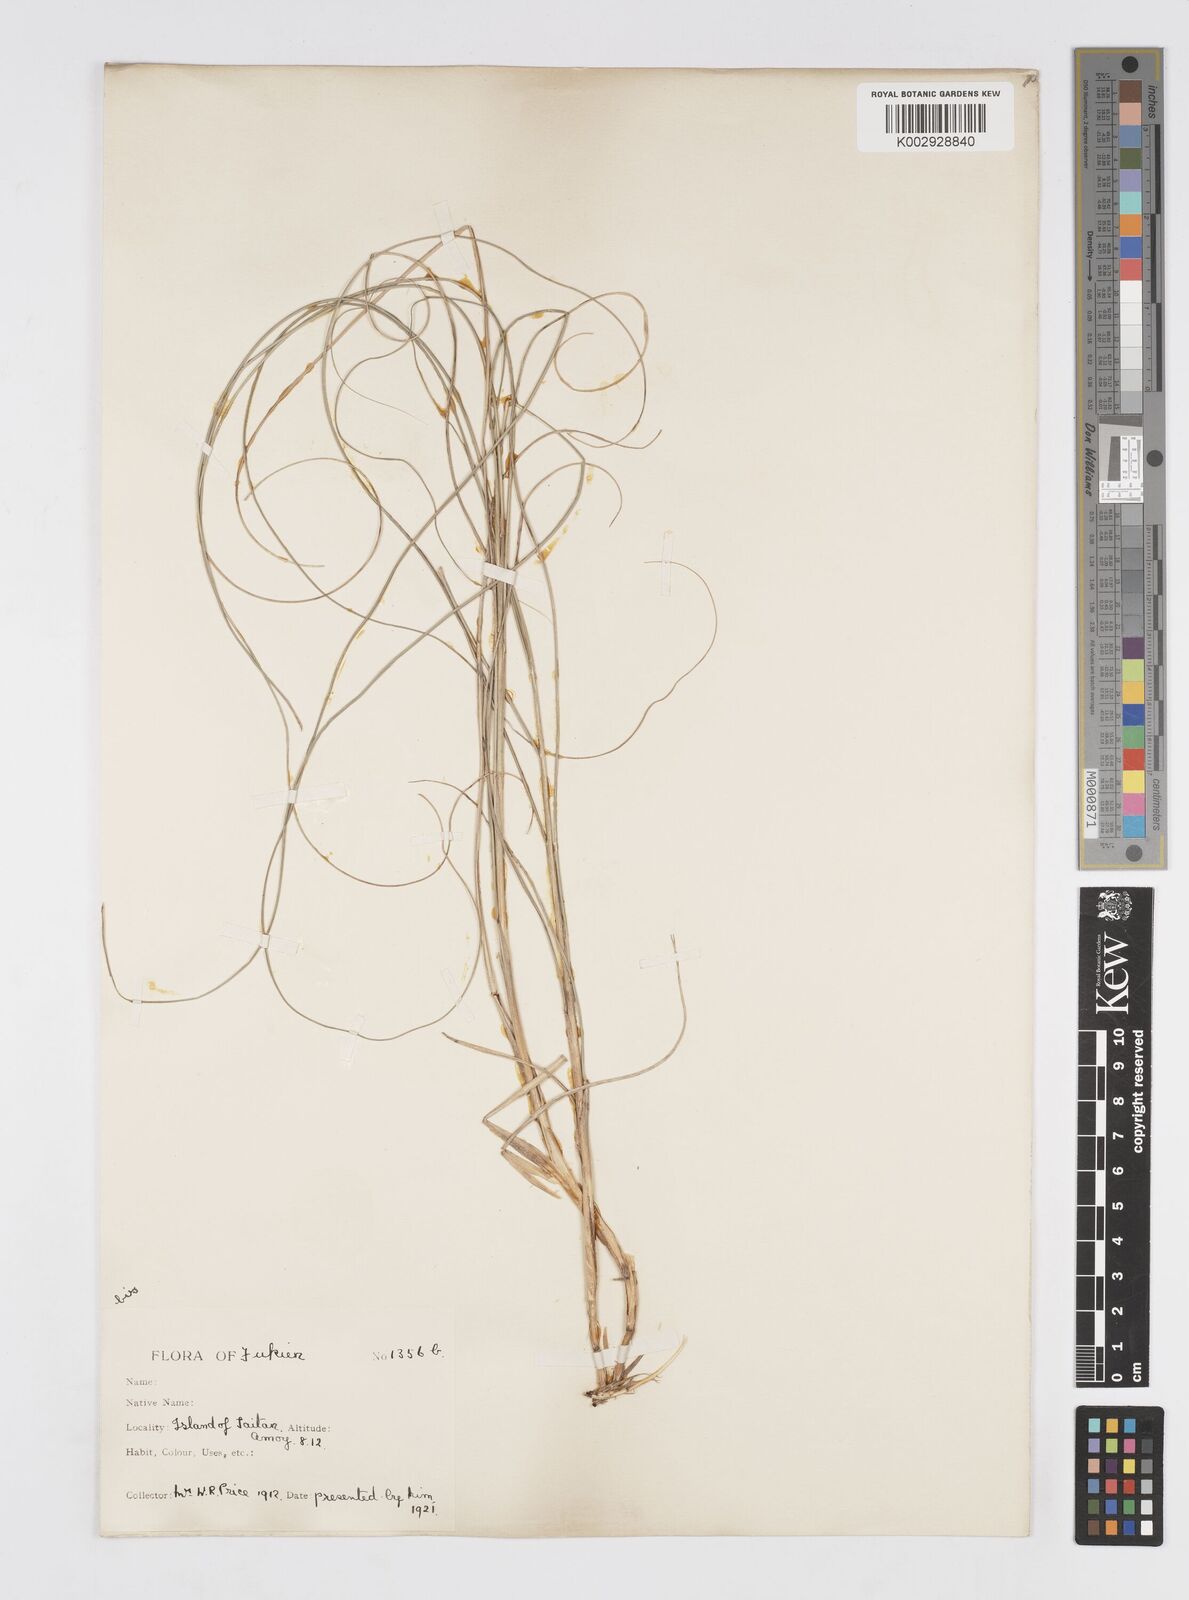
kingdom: Plantae
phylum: Tracheophyta
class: Liliopsida
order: Poales
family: Poaceae
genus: Saccharum
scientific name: Saccharum
